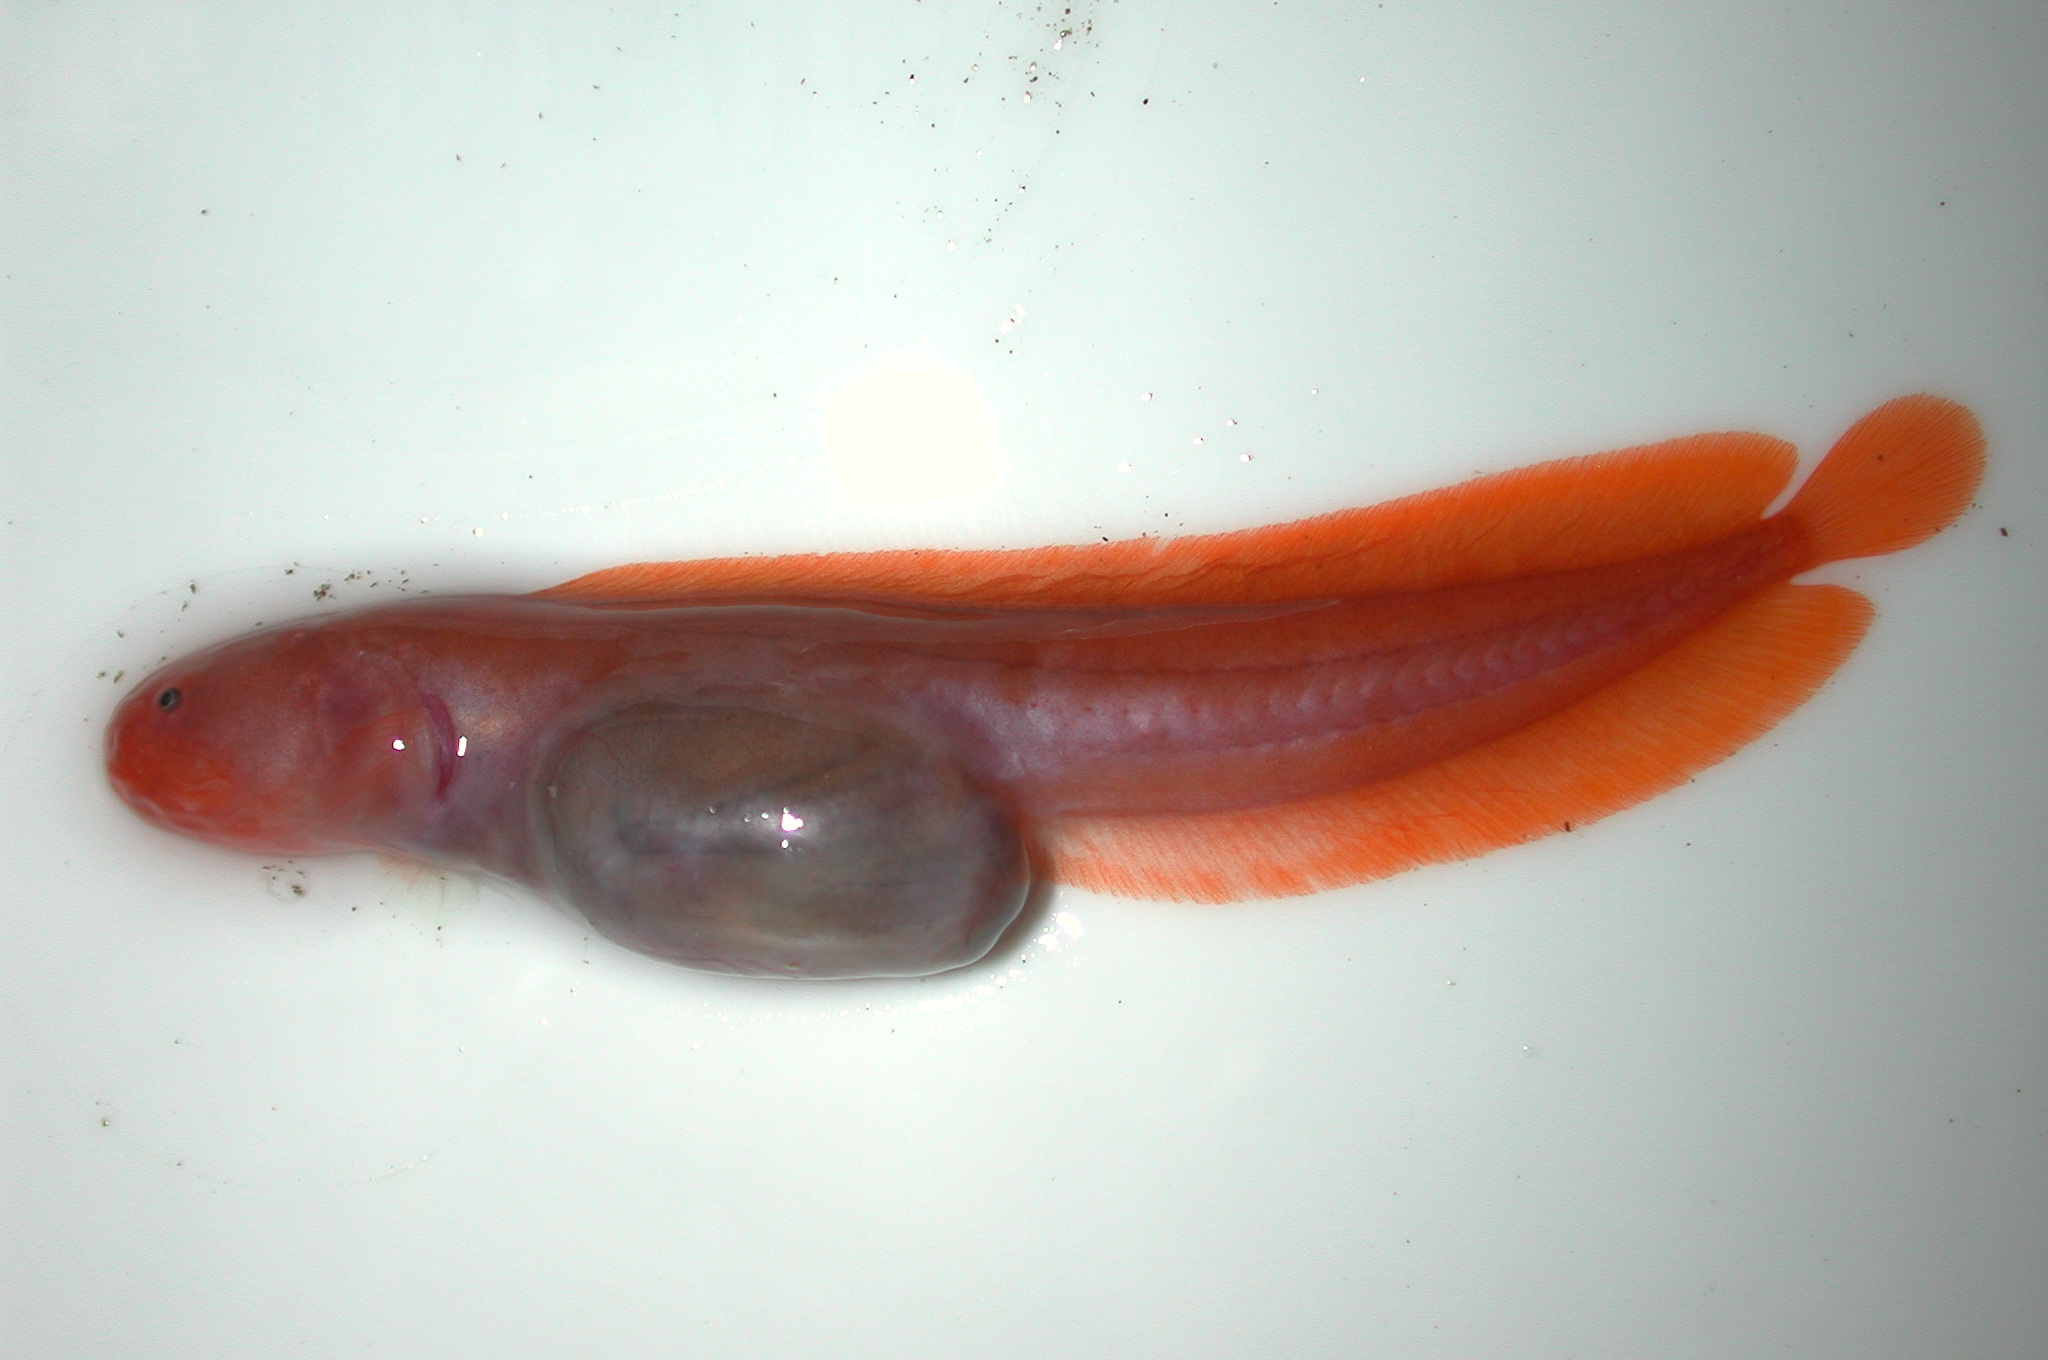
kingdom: Animalia
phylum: Chordata
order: Ophidiiformes
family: Bythitidae
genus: Dermatopsoides
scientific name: Dermatopsoides andersoni
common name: Anderson's mudbrotula
